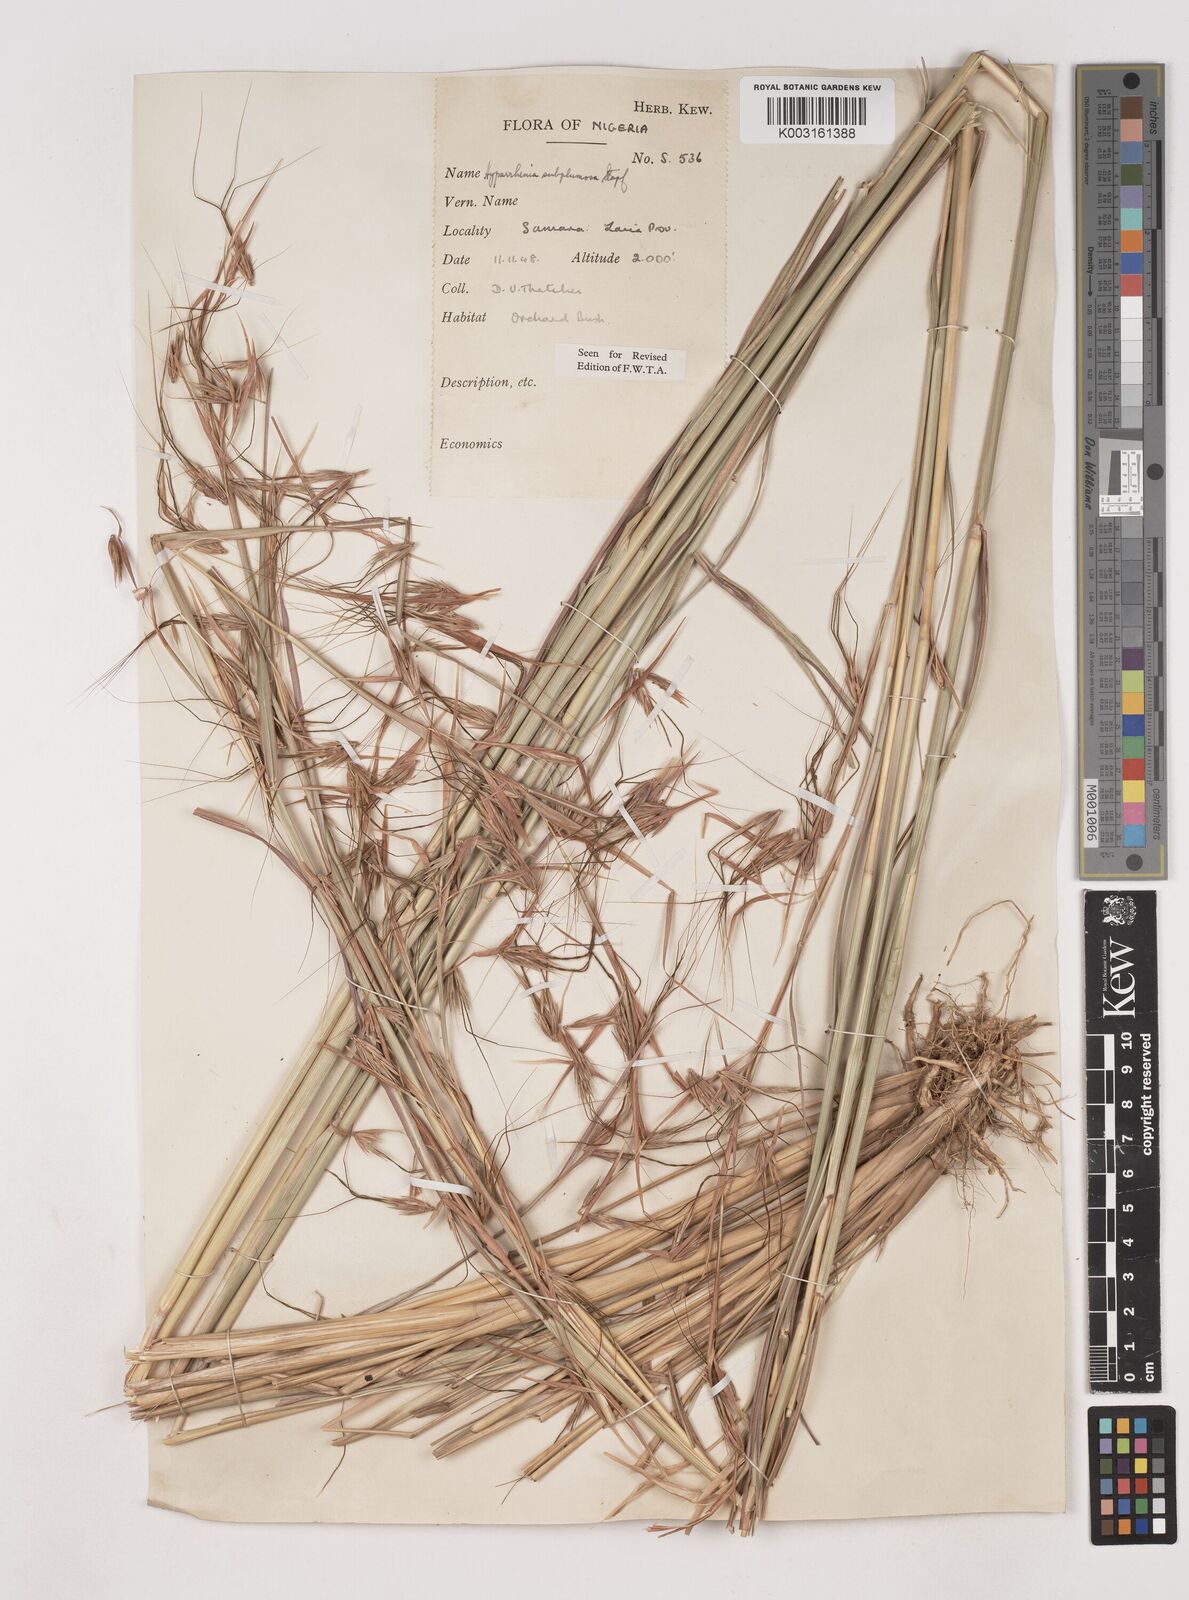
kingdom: Plantae
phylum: Tracheophyta
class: Liliopsida
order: Poales
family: Poaceae
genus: Hyparrhenia
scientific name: Hyparrhenia subplumosa
